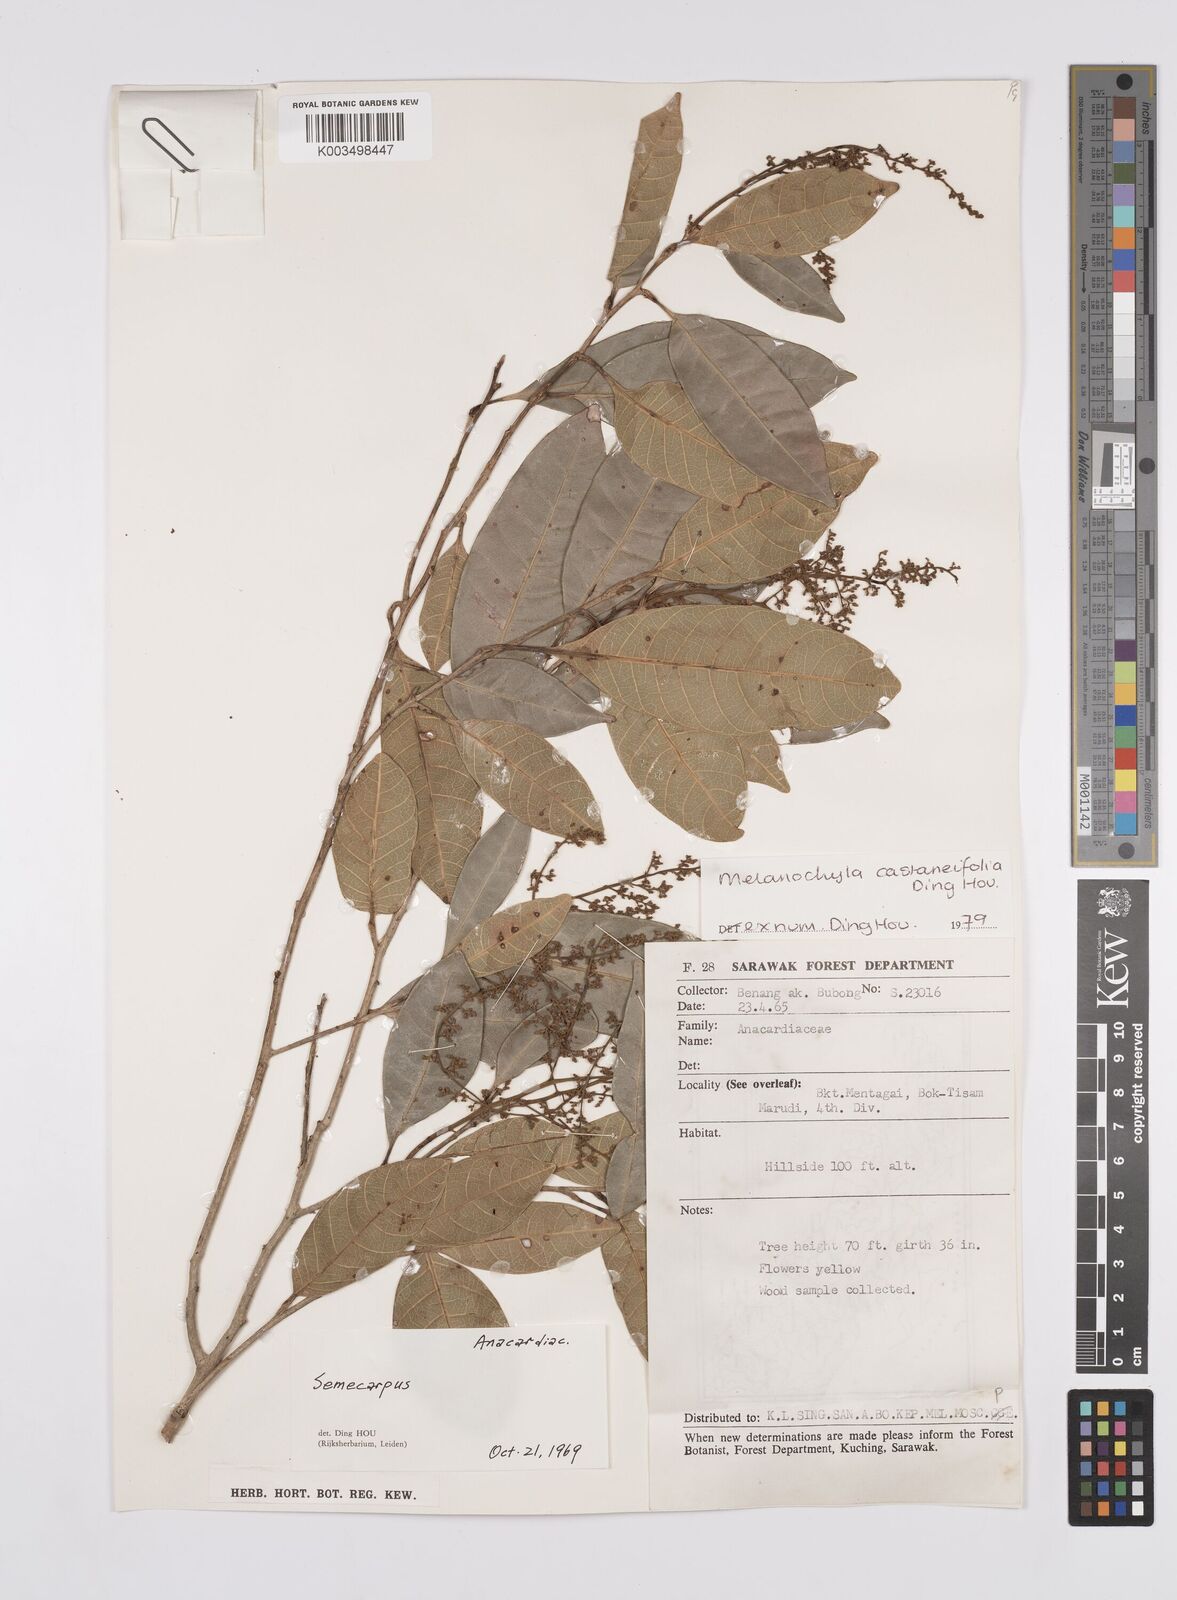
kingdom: Plantae
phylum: Tracheophyta
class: Magnoliopsida
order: Sapindales
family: Anacardiaceae
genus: Melanochyla
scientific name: Melanochyla castaneifolia
